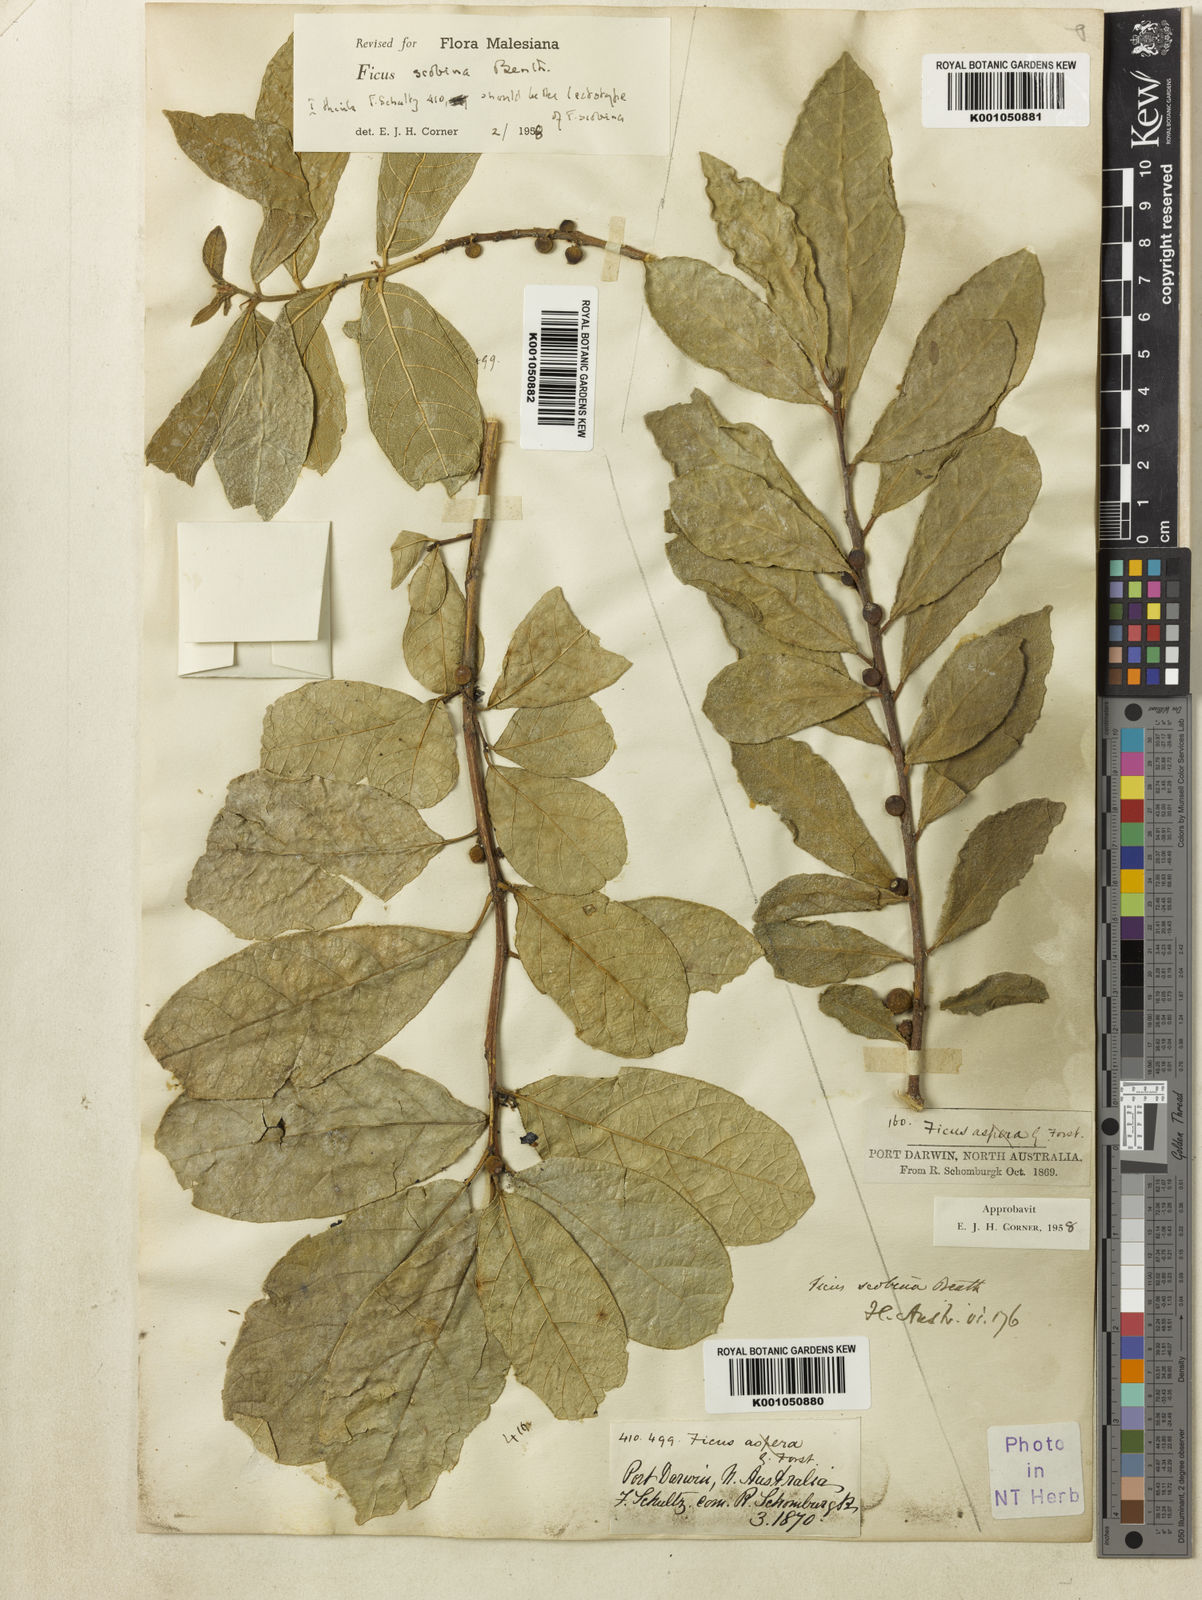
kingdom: Plantae
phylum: Tracheophyta
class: Magnoliopsida
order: Rosales
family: Moraceae
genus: Ficus
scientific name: Ficus scobina
